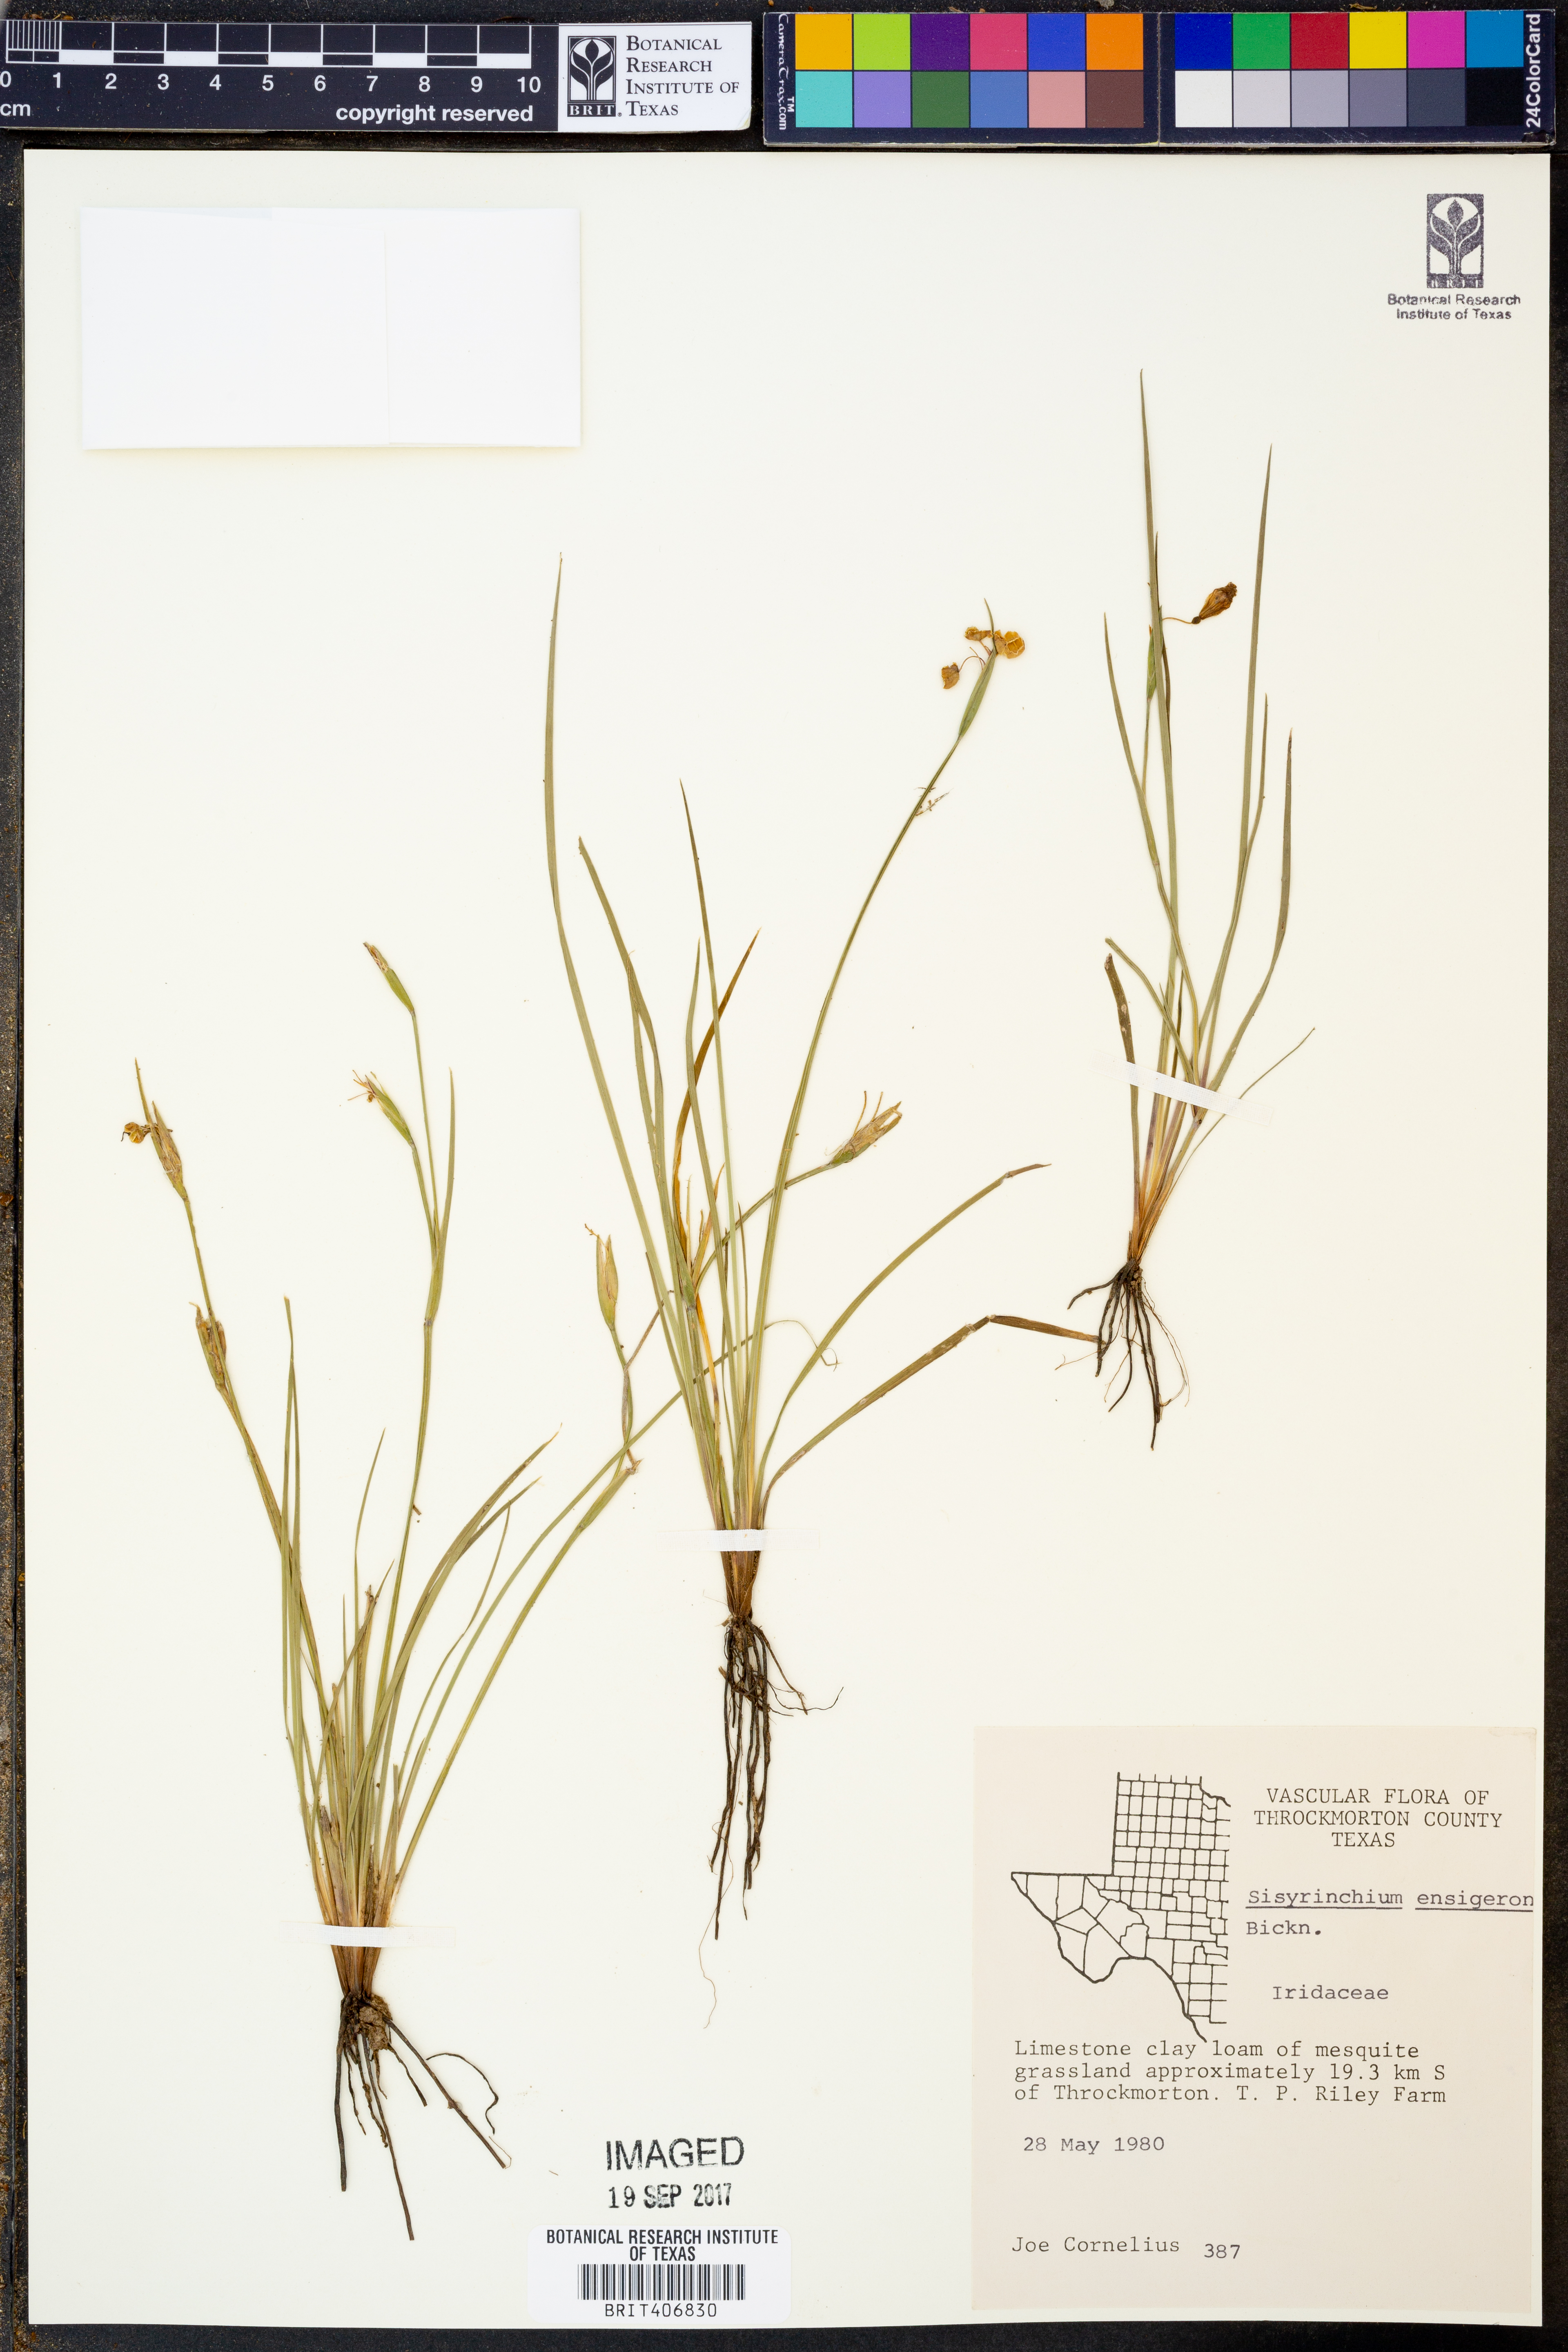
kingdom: Plantae
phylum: Tracheophyta
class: Liliopsida
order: Asparagales
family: Iridaceae
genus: Sisyrinchium
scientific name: Sisyrinchium ensigerum
